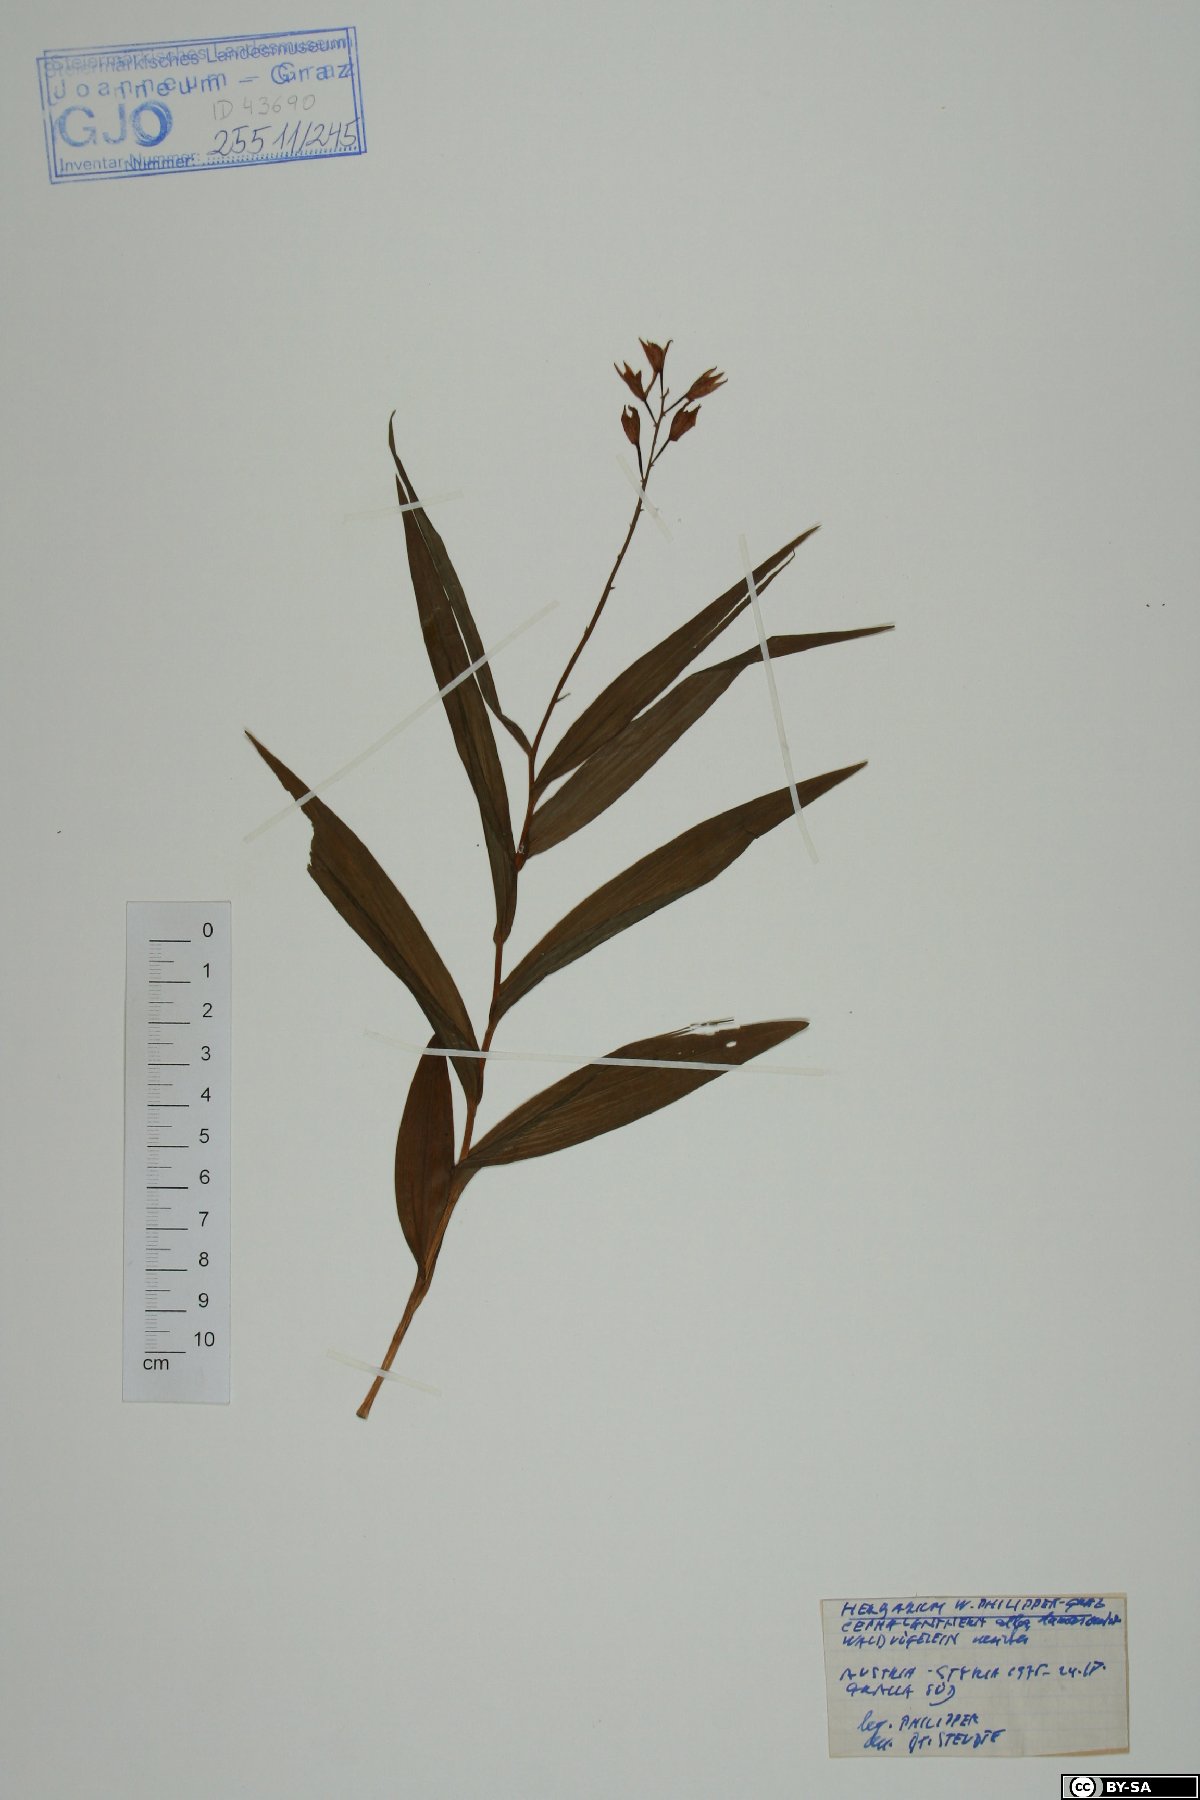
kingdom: Plantae
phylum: Tracheophyta
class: Liliopsida
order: Asparagales
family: Orchidaceae
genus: Cephalanthera
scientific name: Cephalanthera damasonium
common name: White helleborine
